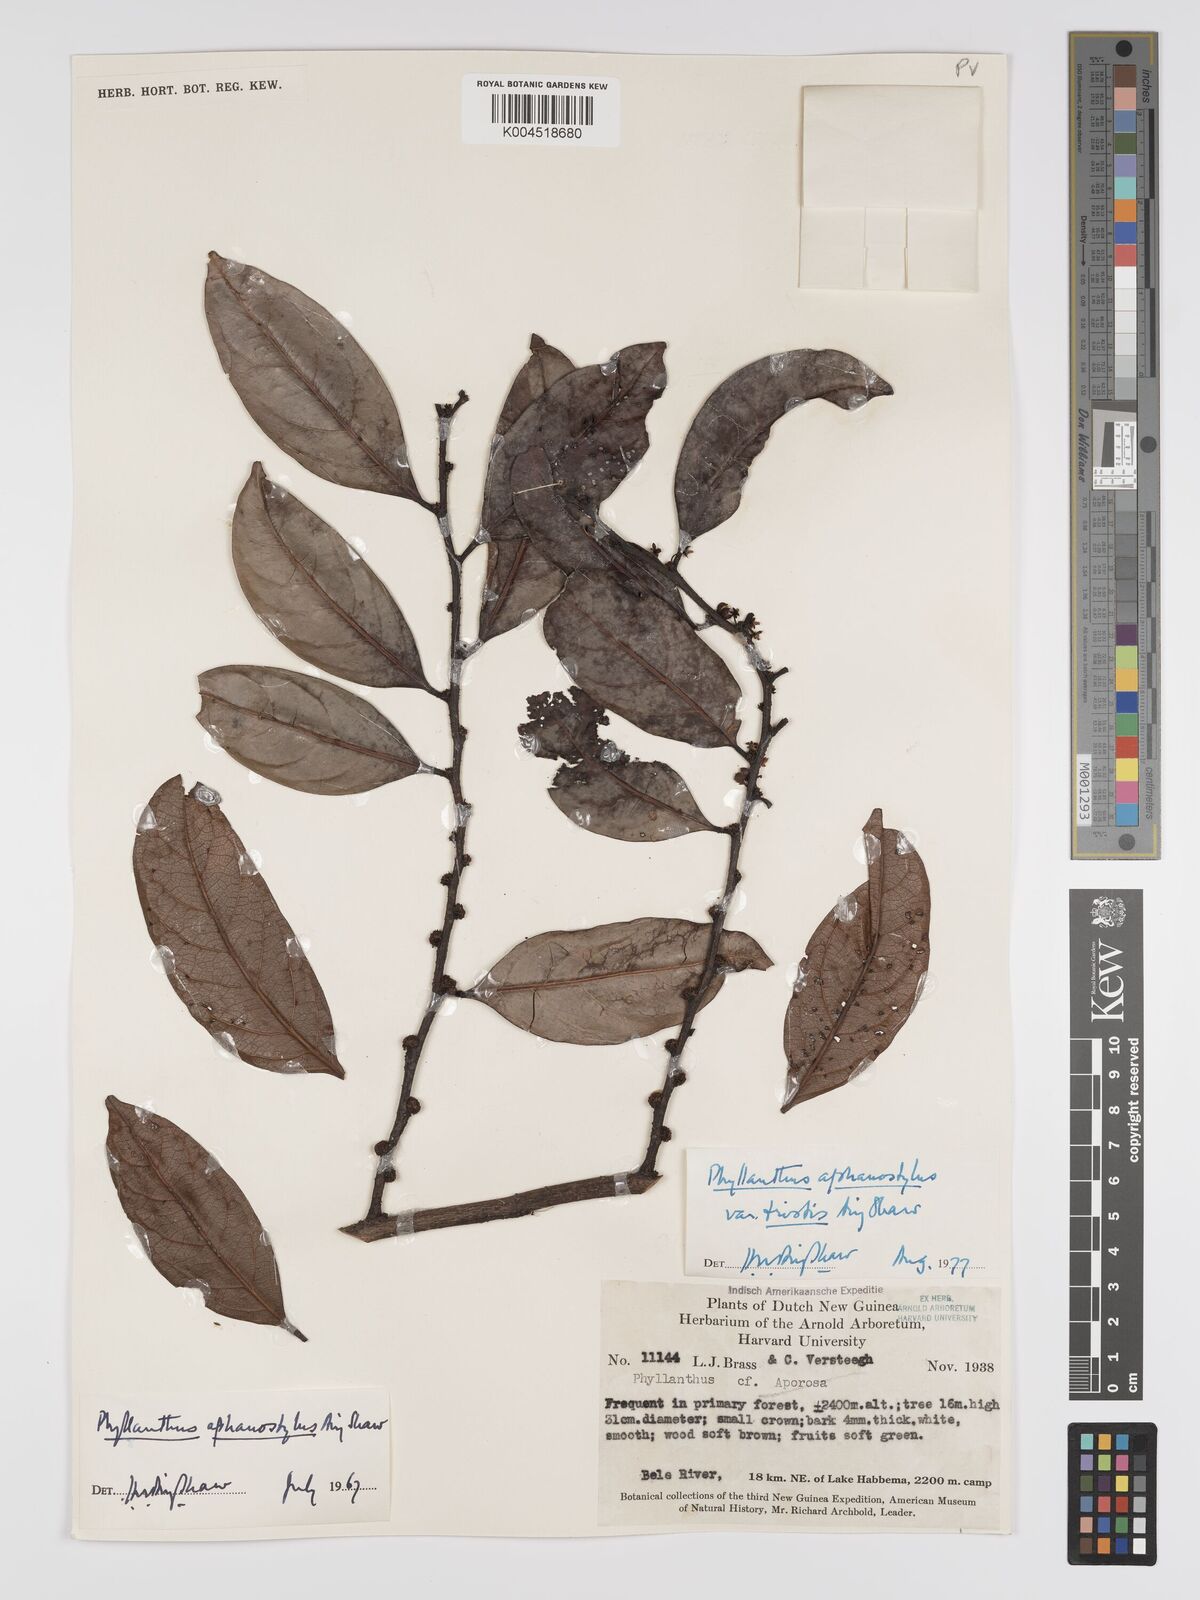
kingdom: Plantae
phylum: Tracheophyta
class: Magnoliopsida
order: Malpighiales
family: Phyllanthaceae
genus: Phyllanthus
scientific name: Phyllanthus aphanostylus
